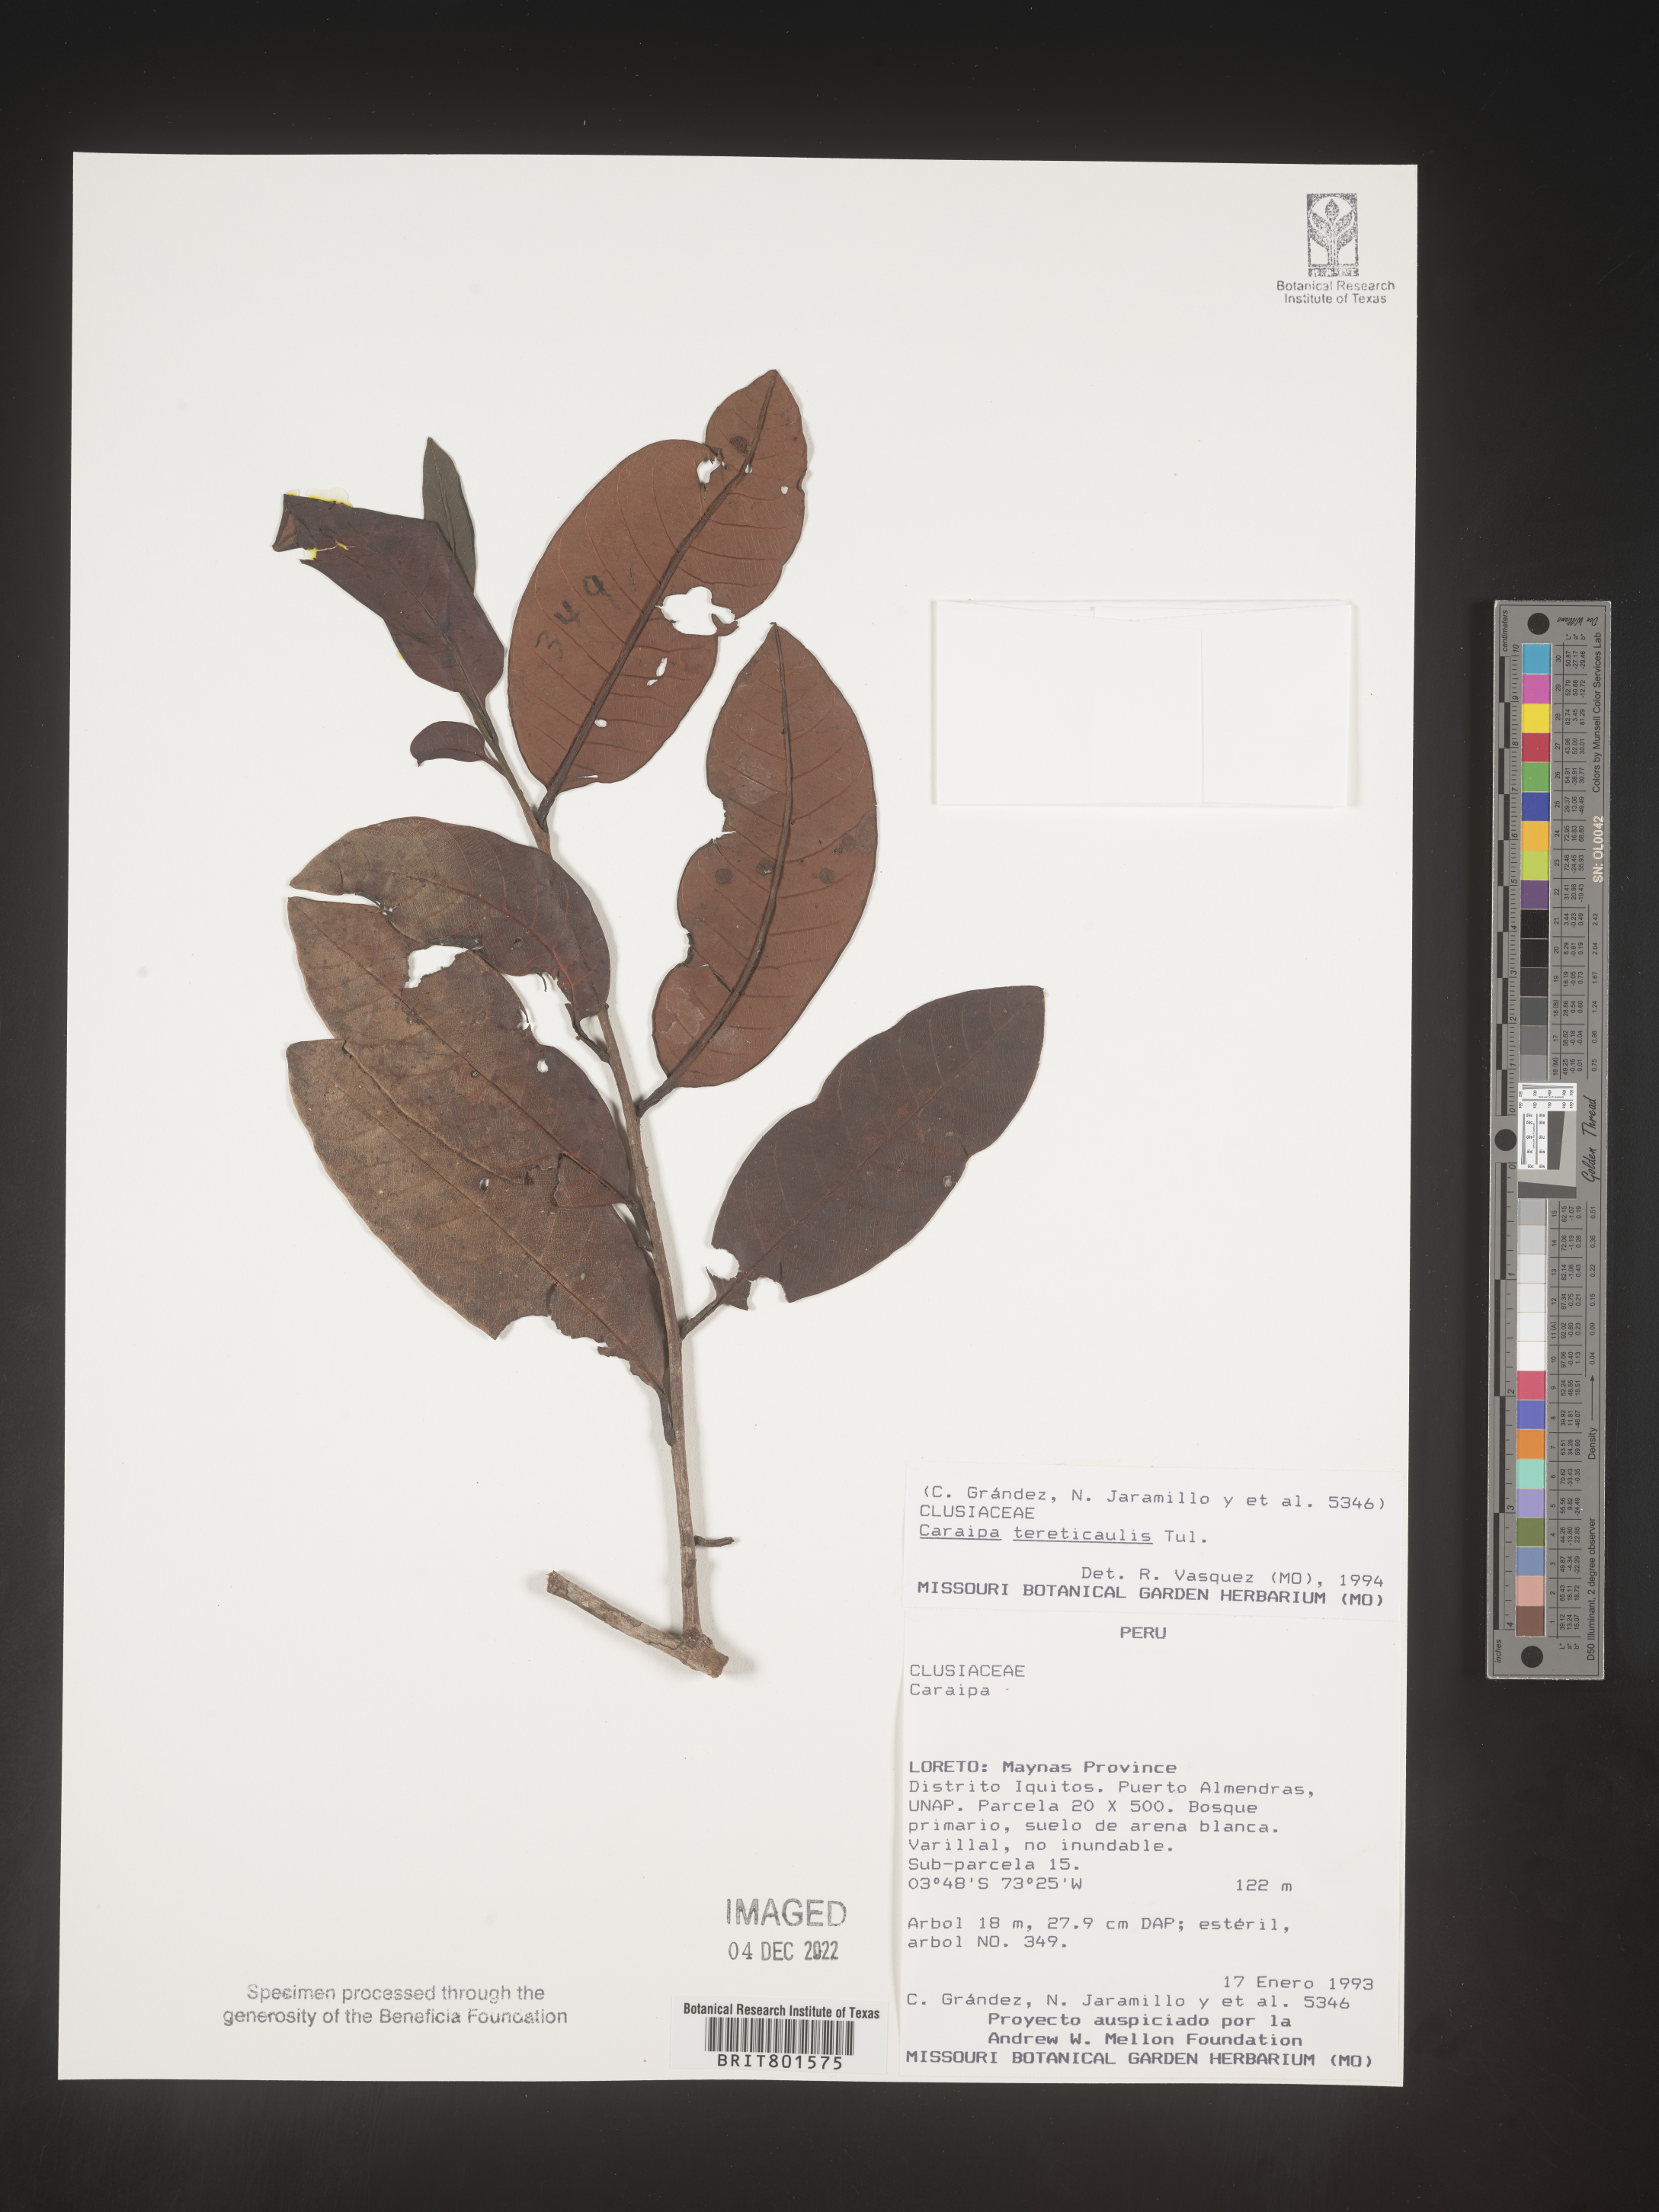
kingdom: Plantae
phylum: Tracheophyta
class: Magnoliopsida
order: Malpighiales
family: Calophyllaceae
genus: Caraipa
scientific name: Caraipa
